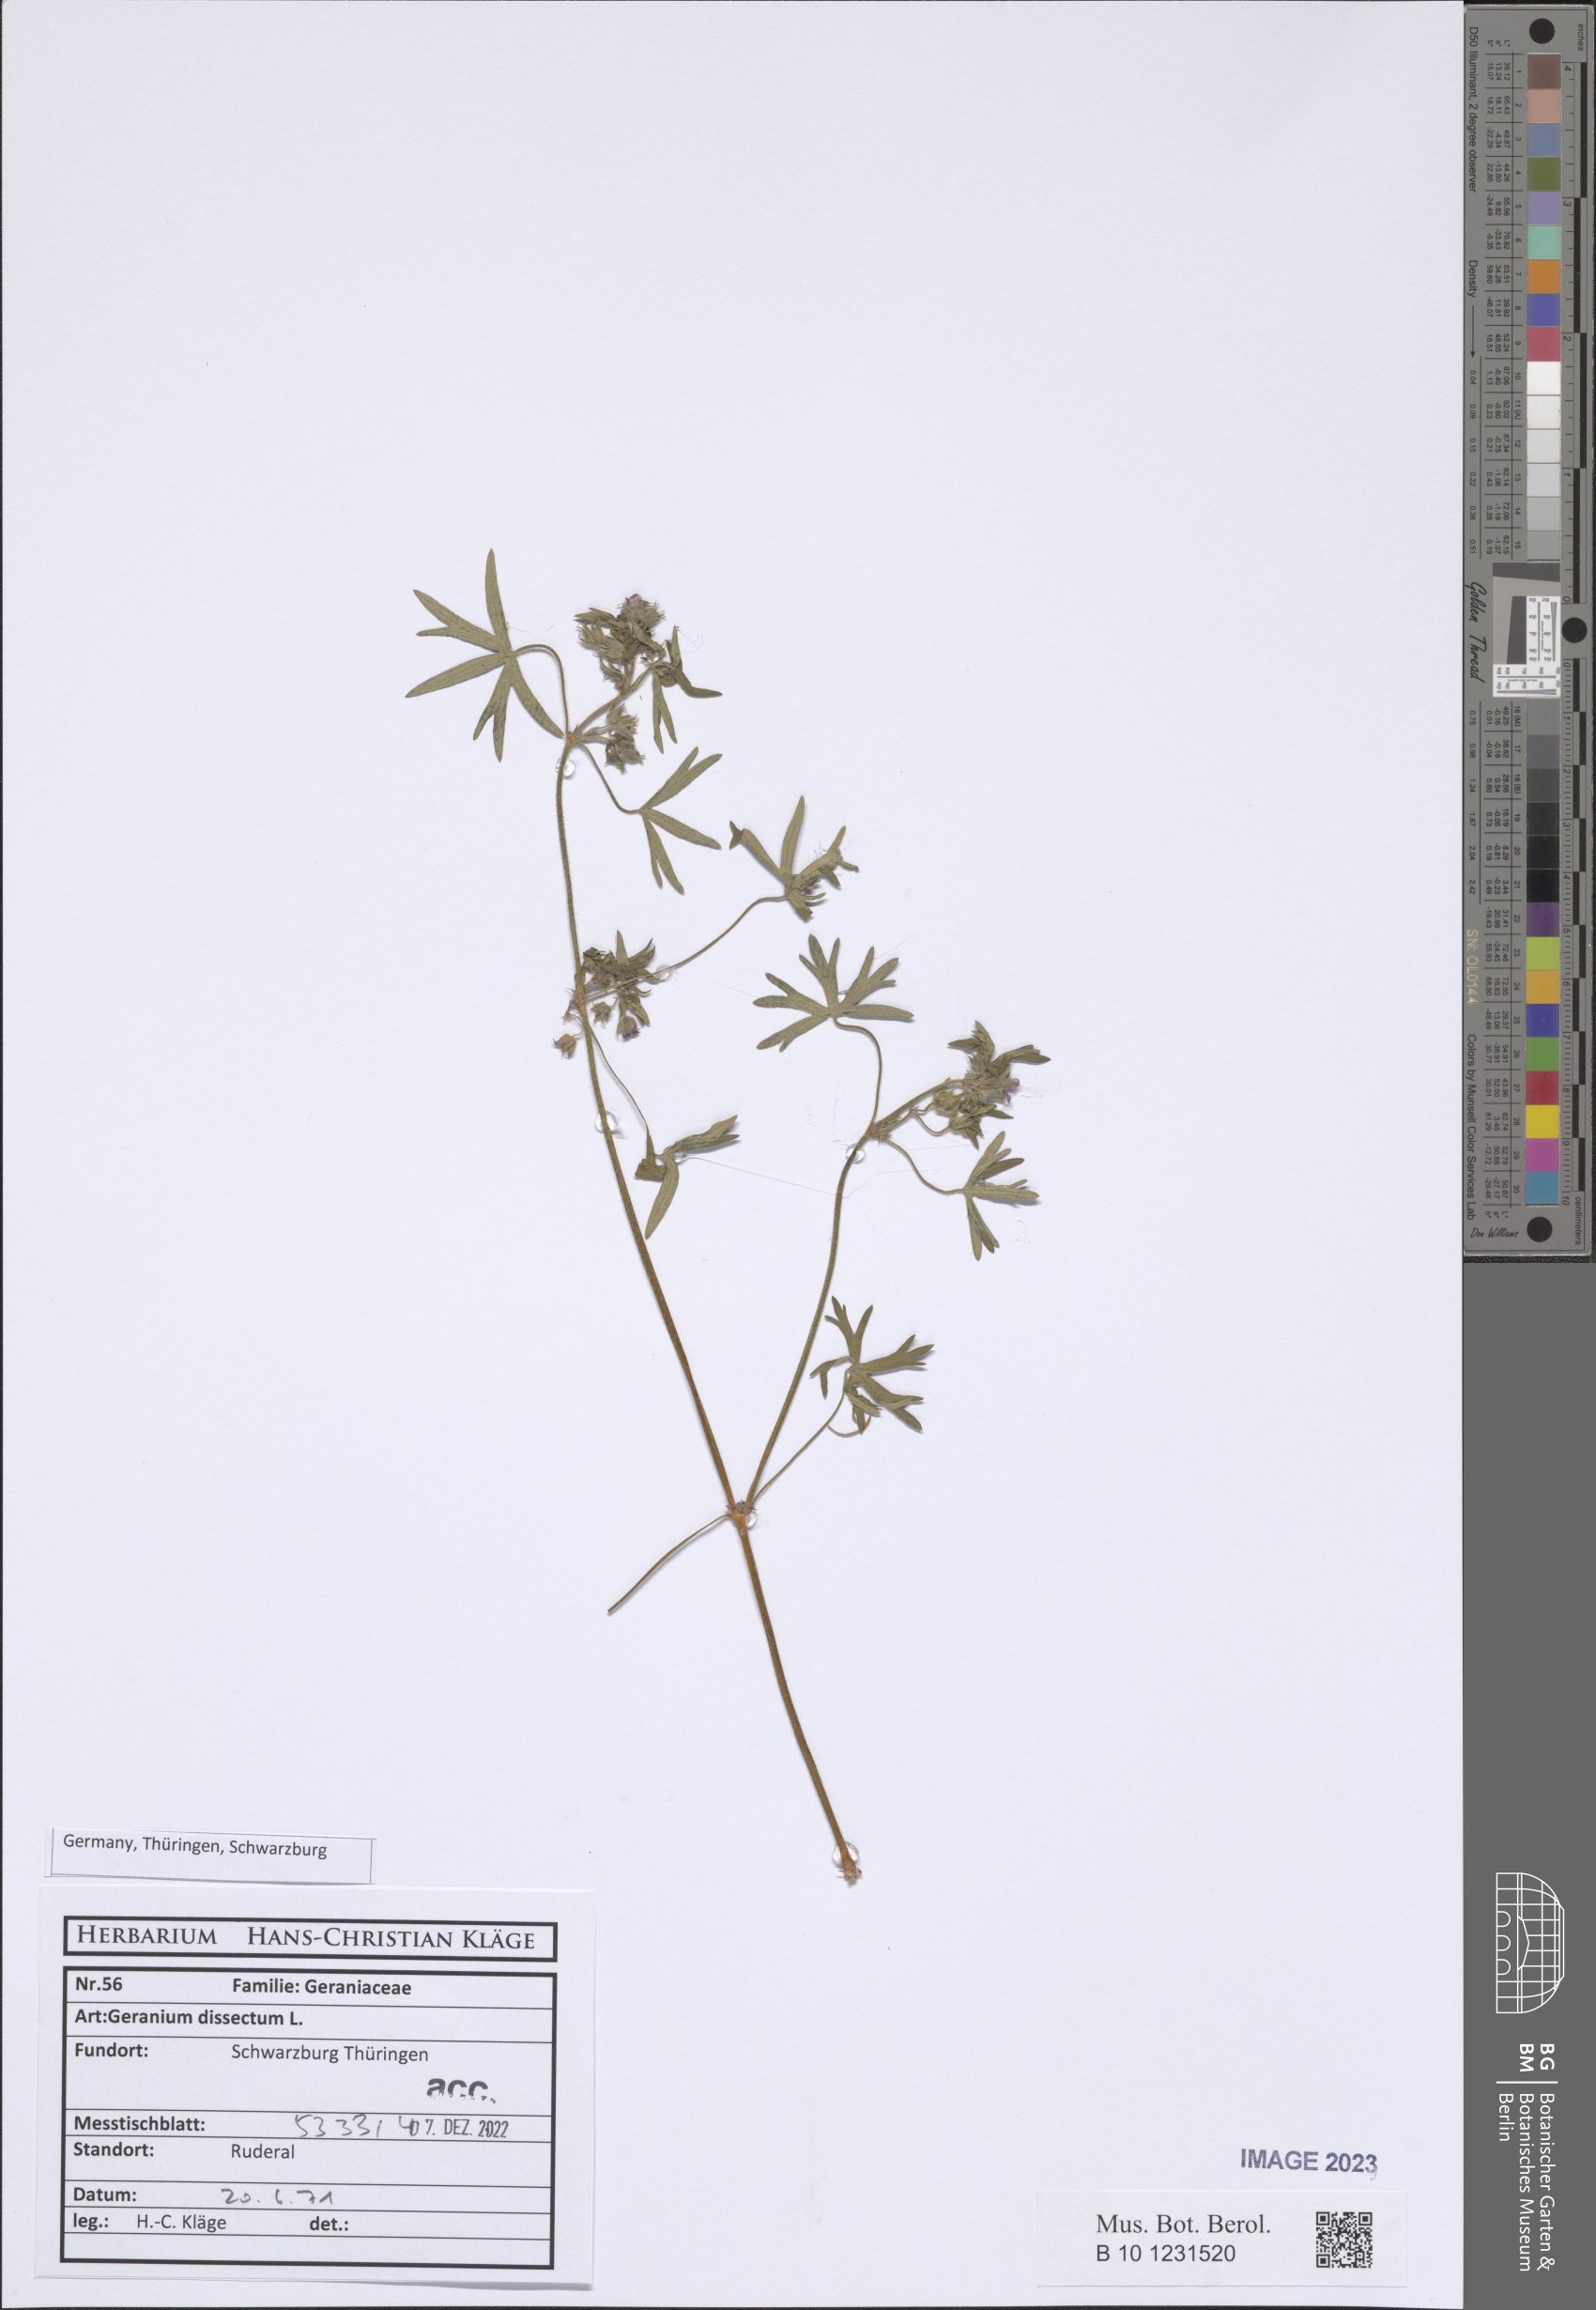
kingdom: Plantae
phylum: Tracheophyta
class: Magnoliopsida
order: Geraniales
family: Geraniaceae
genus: Geranium
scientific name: Geranium dissectum
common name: Cut-leaved crane's-bill
